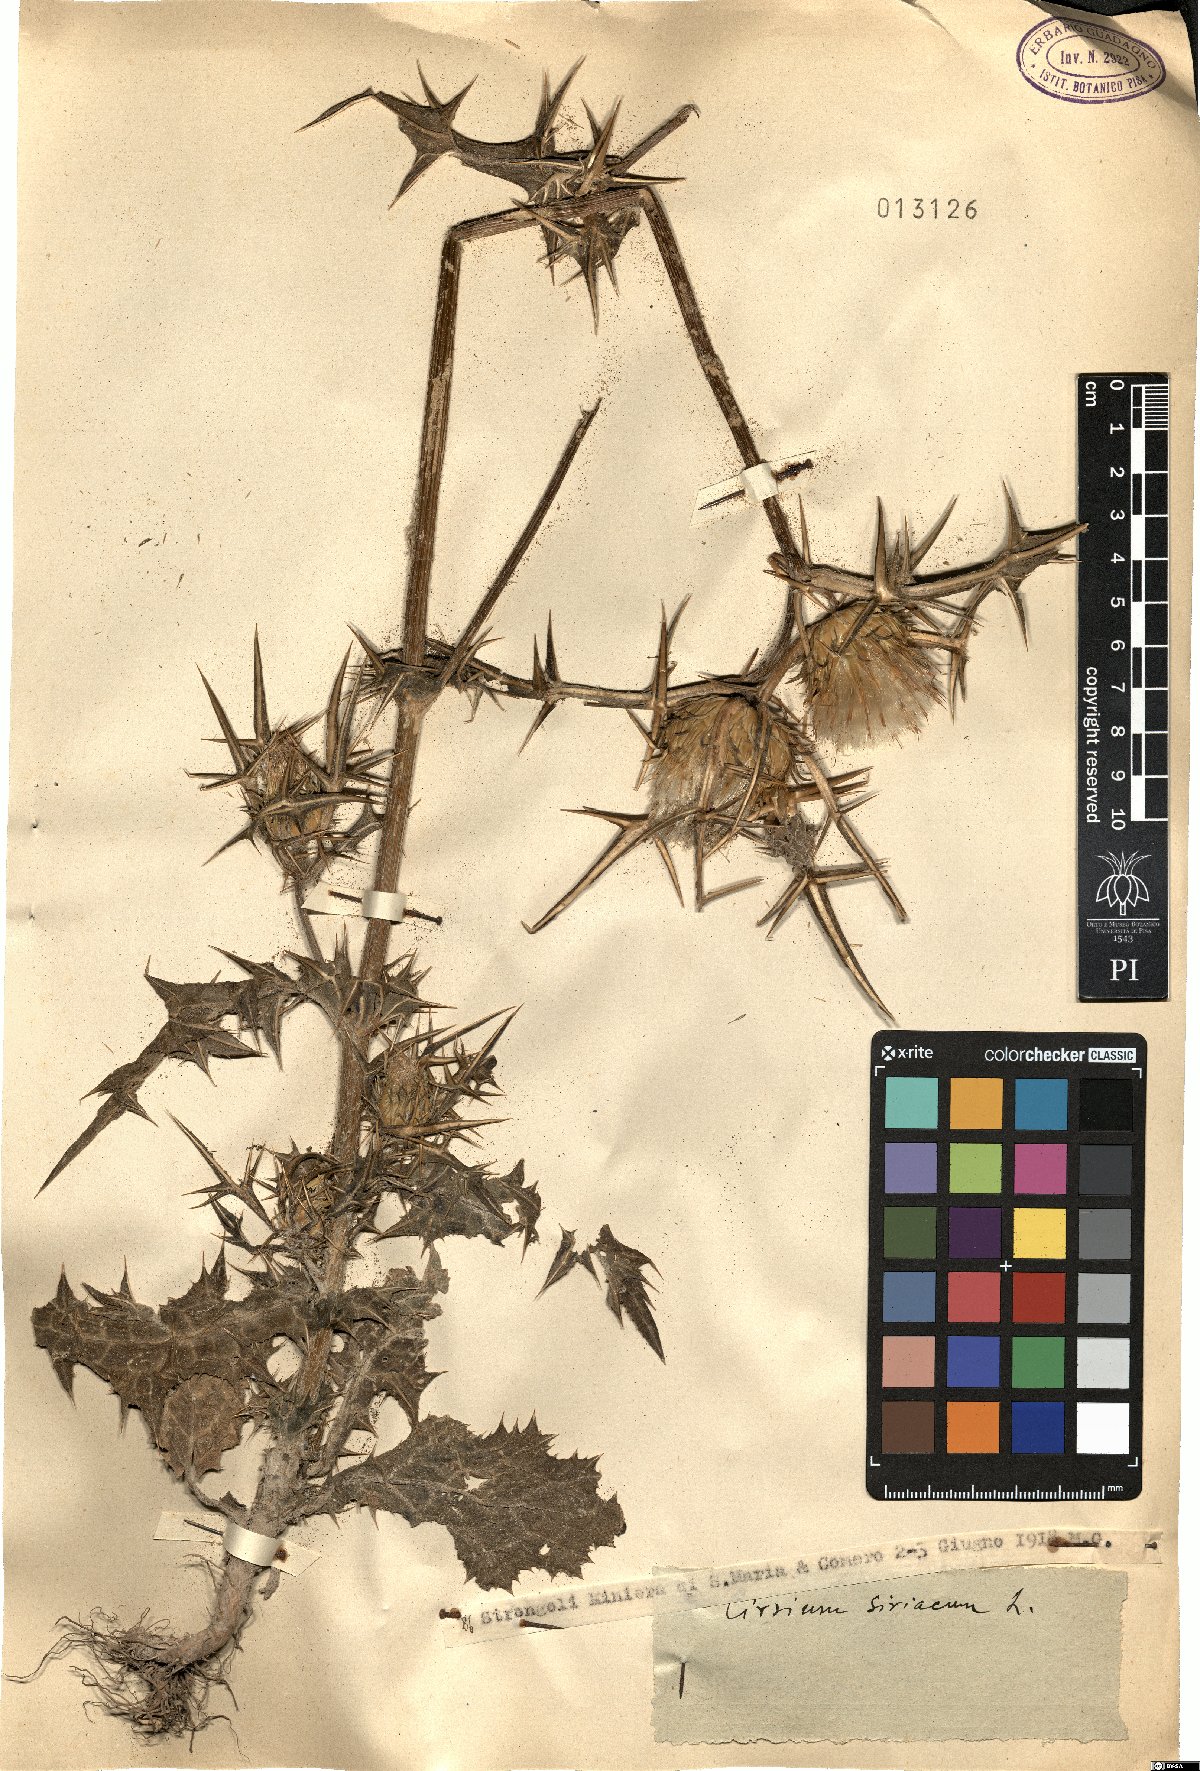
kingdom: Plantae
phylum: Tracheophyta
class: Magnoliopsida
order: Asterales
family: Asteraceae
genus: Notobasis
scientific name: Notobasis syriaca
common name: Syrian thistle
